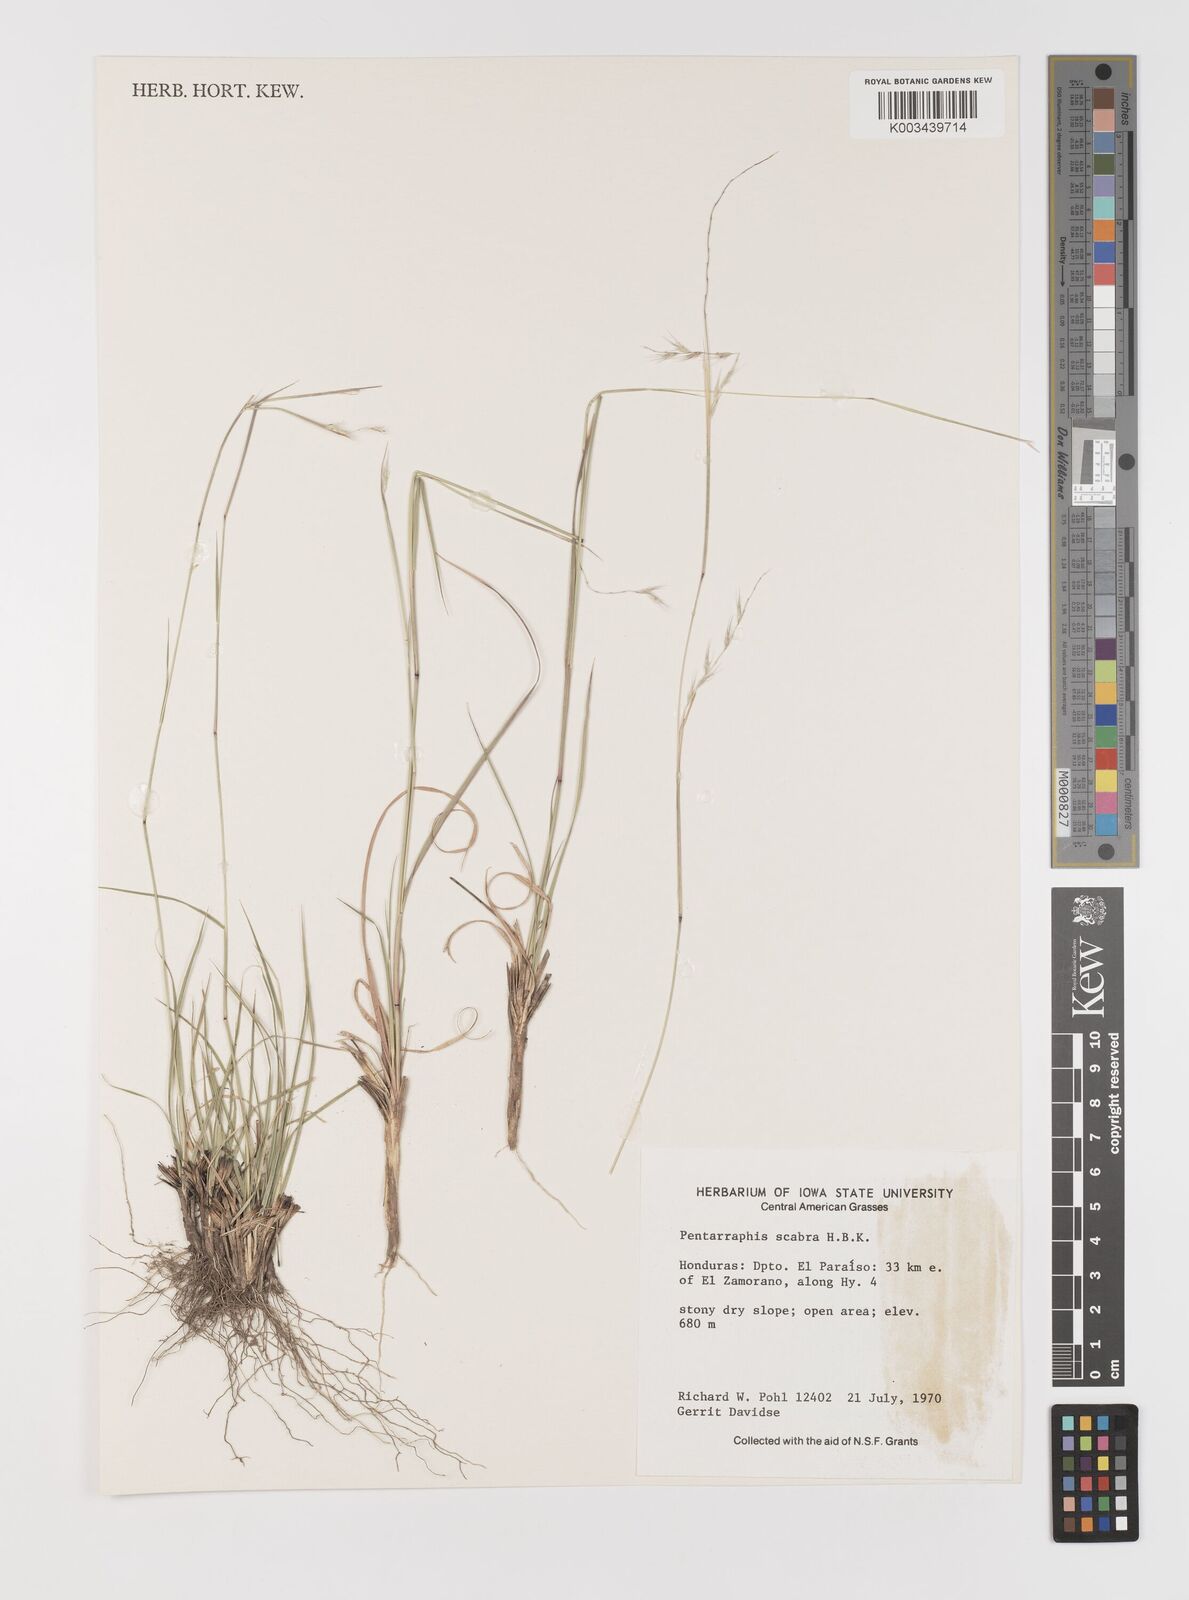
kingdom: Plantae
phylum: Tracheophyta
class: Liliopsida
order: Poales
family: Poaceae
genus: Bouteloua
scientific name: Bouteloua scabra
